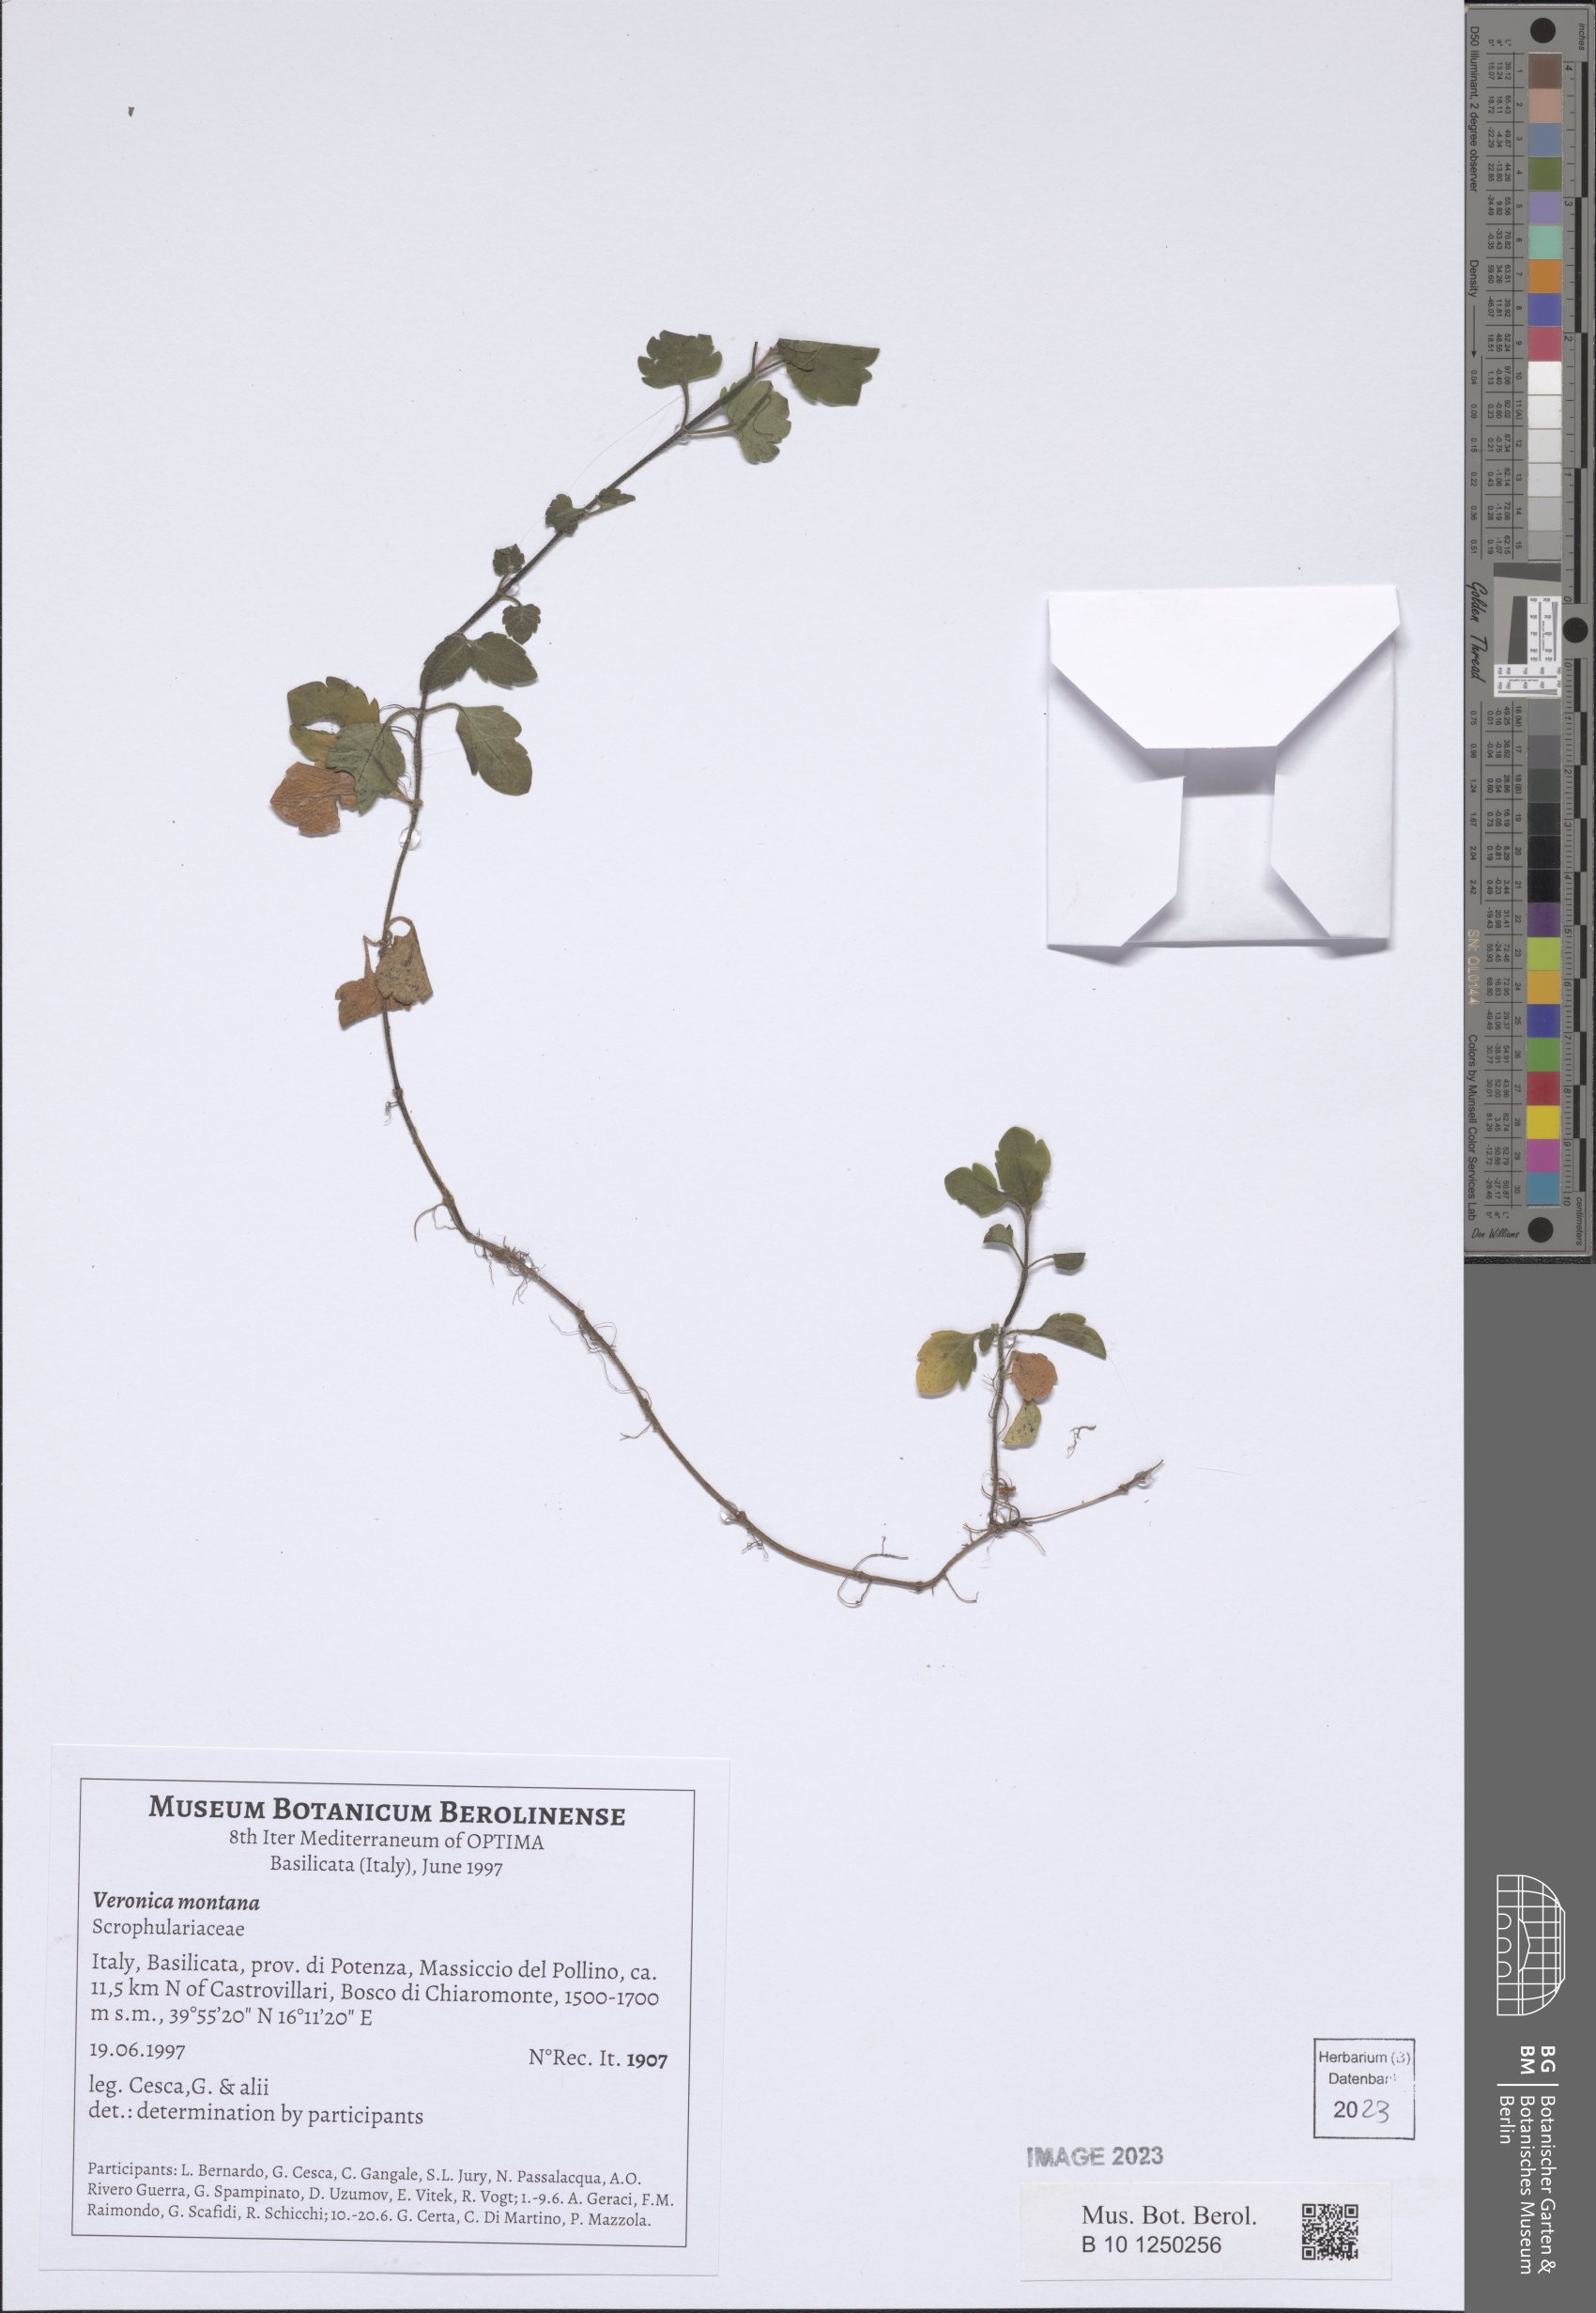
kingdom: Plantae
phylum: Tracheophyta
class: Magnoliopsida
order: Lamiales
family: Plantaginaceae
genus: Veronica
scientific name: Veronica montana
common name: Wood speedwell
